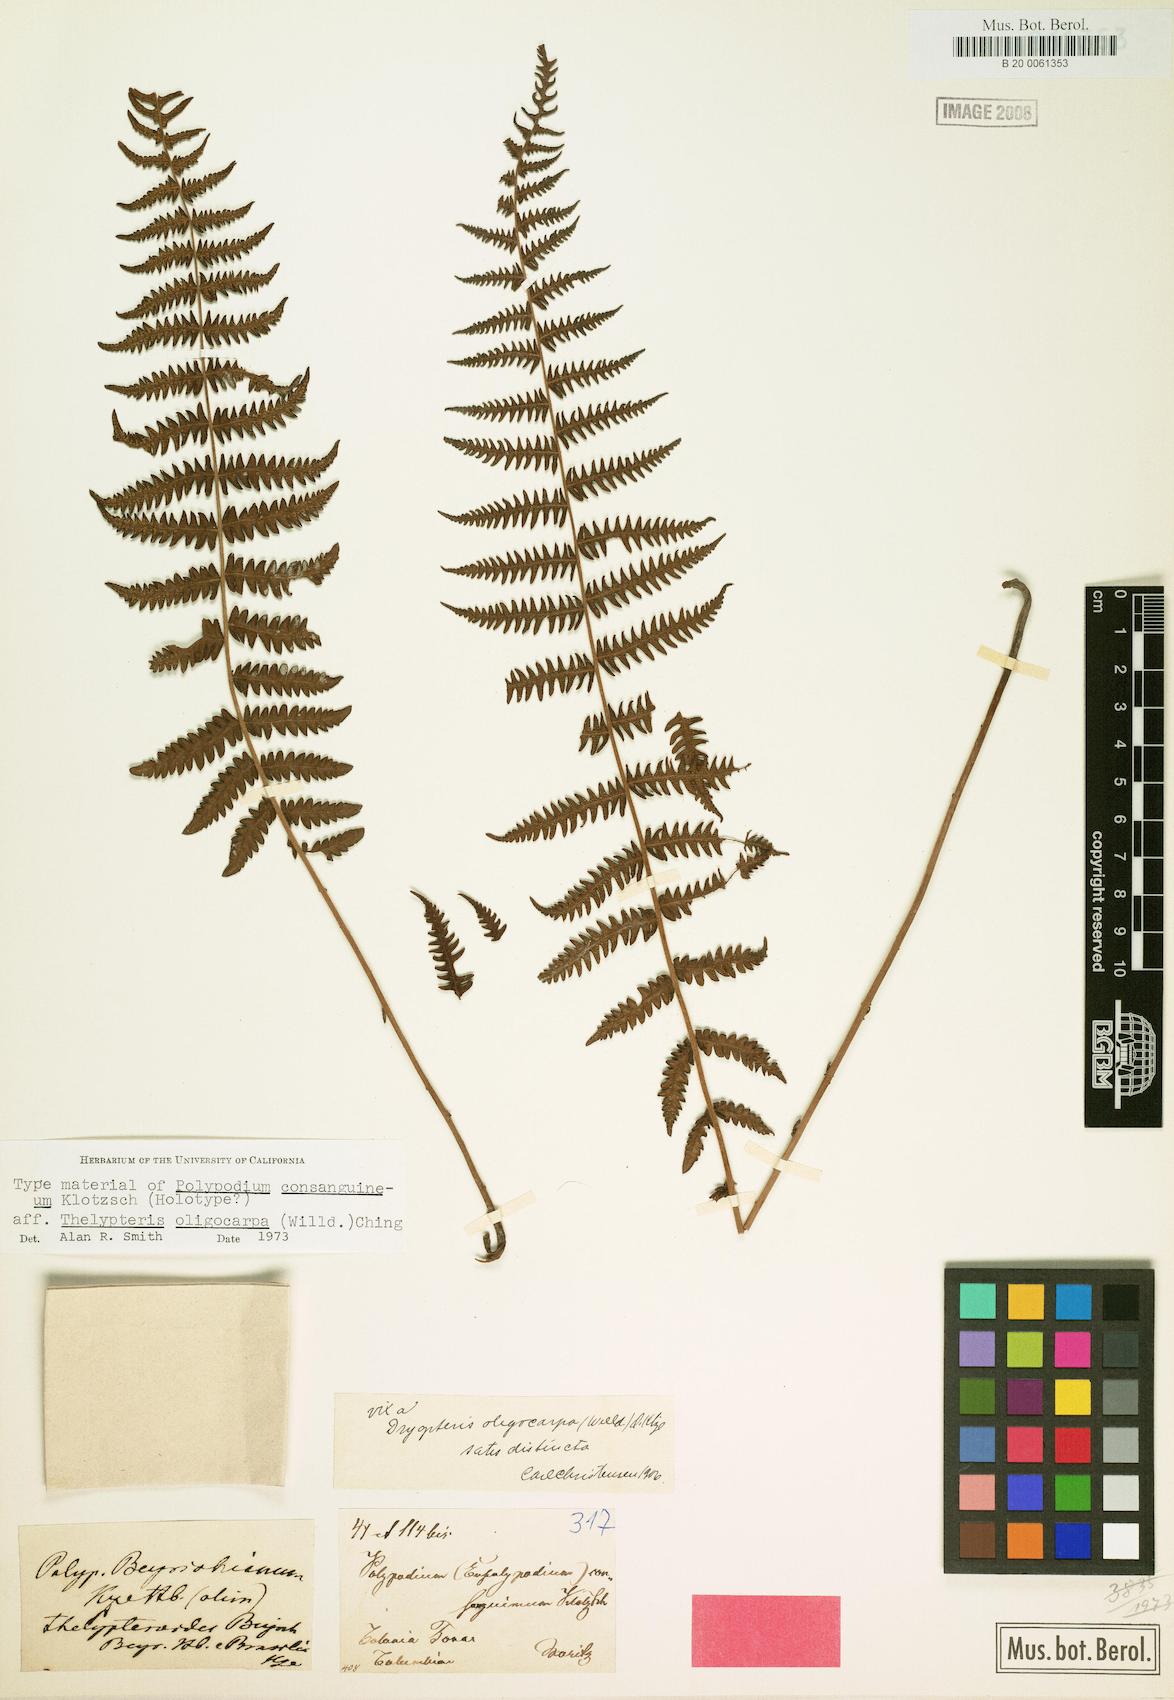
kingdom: Plantae
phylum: Tracheophyta
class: Polypodiopsida
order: Polypodiales
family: Thelypteridaceae
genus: Amauropelta
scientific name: Amauropelta oligocarpa
